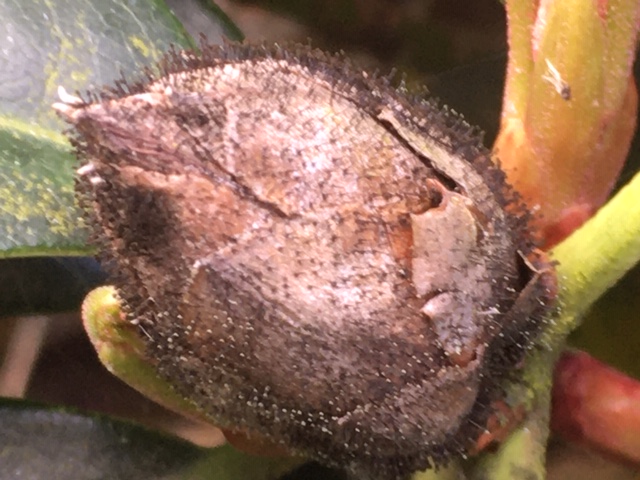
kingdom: Fungi
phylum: Ascomycota
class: Dothideomycetes
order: Pleosporales
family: Melanommataceae
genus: Seifertia
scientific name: Seifertia azaleae
